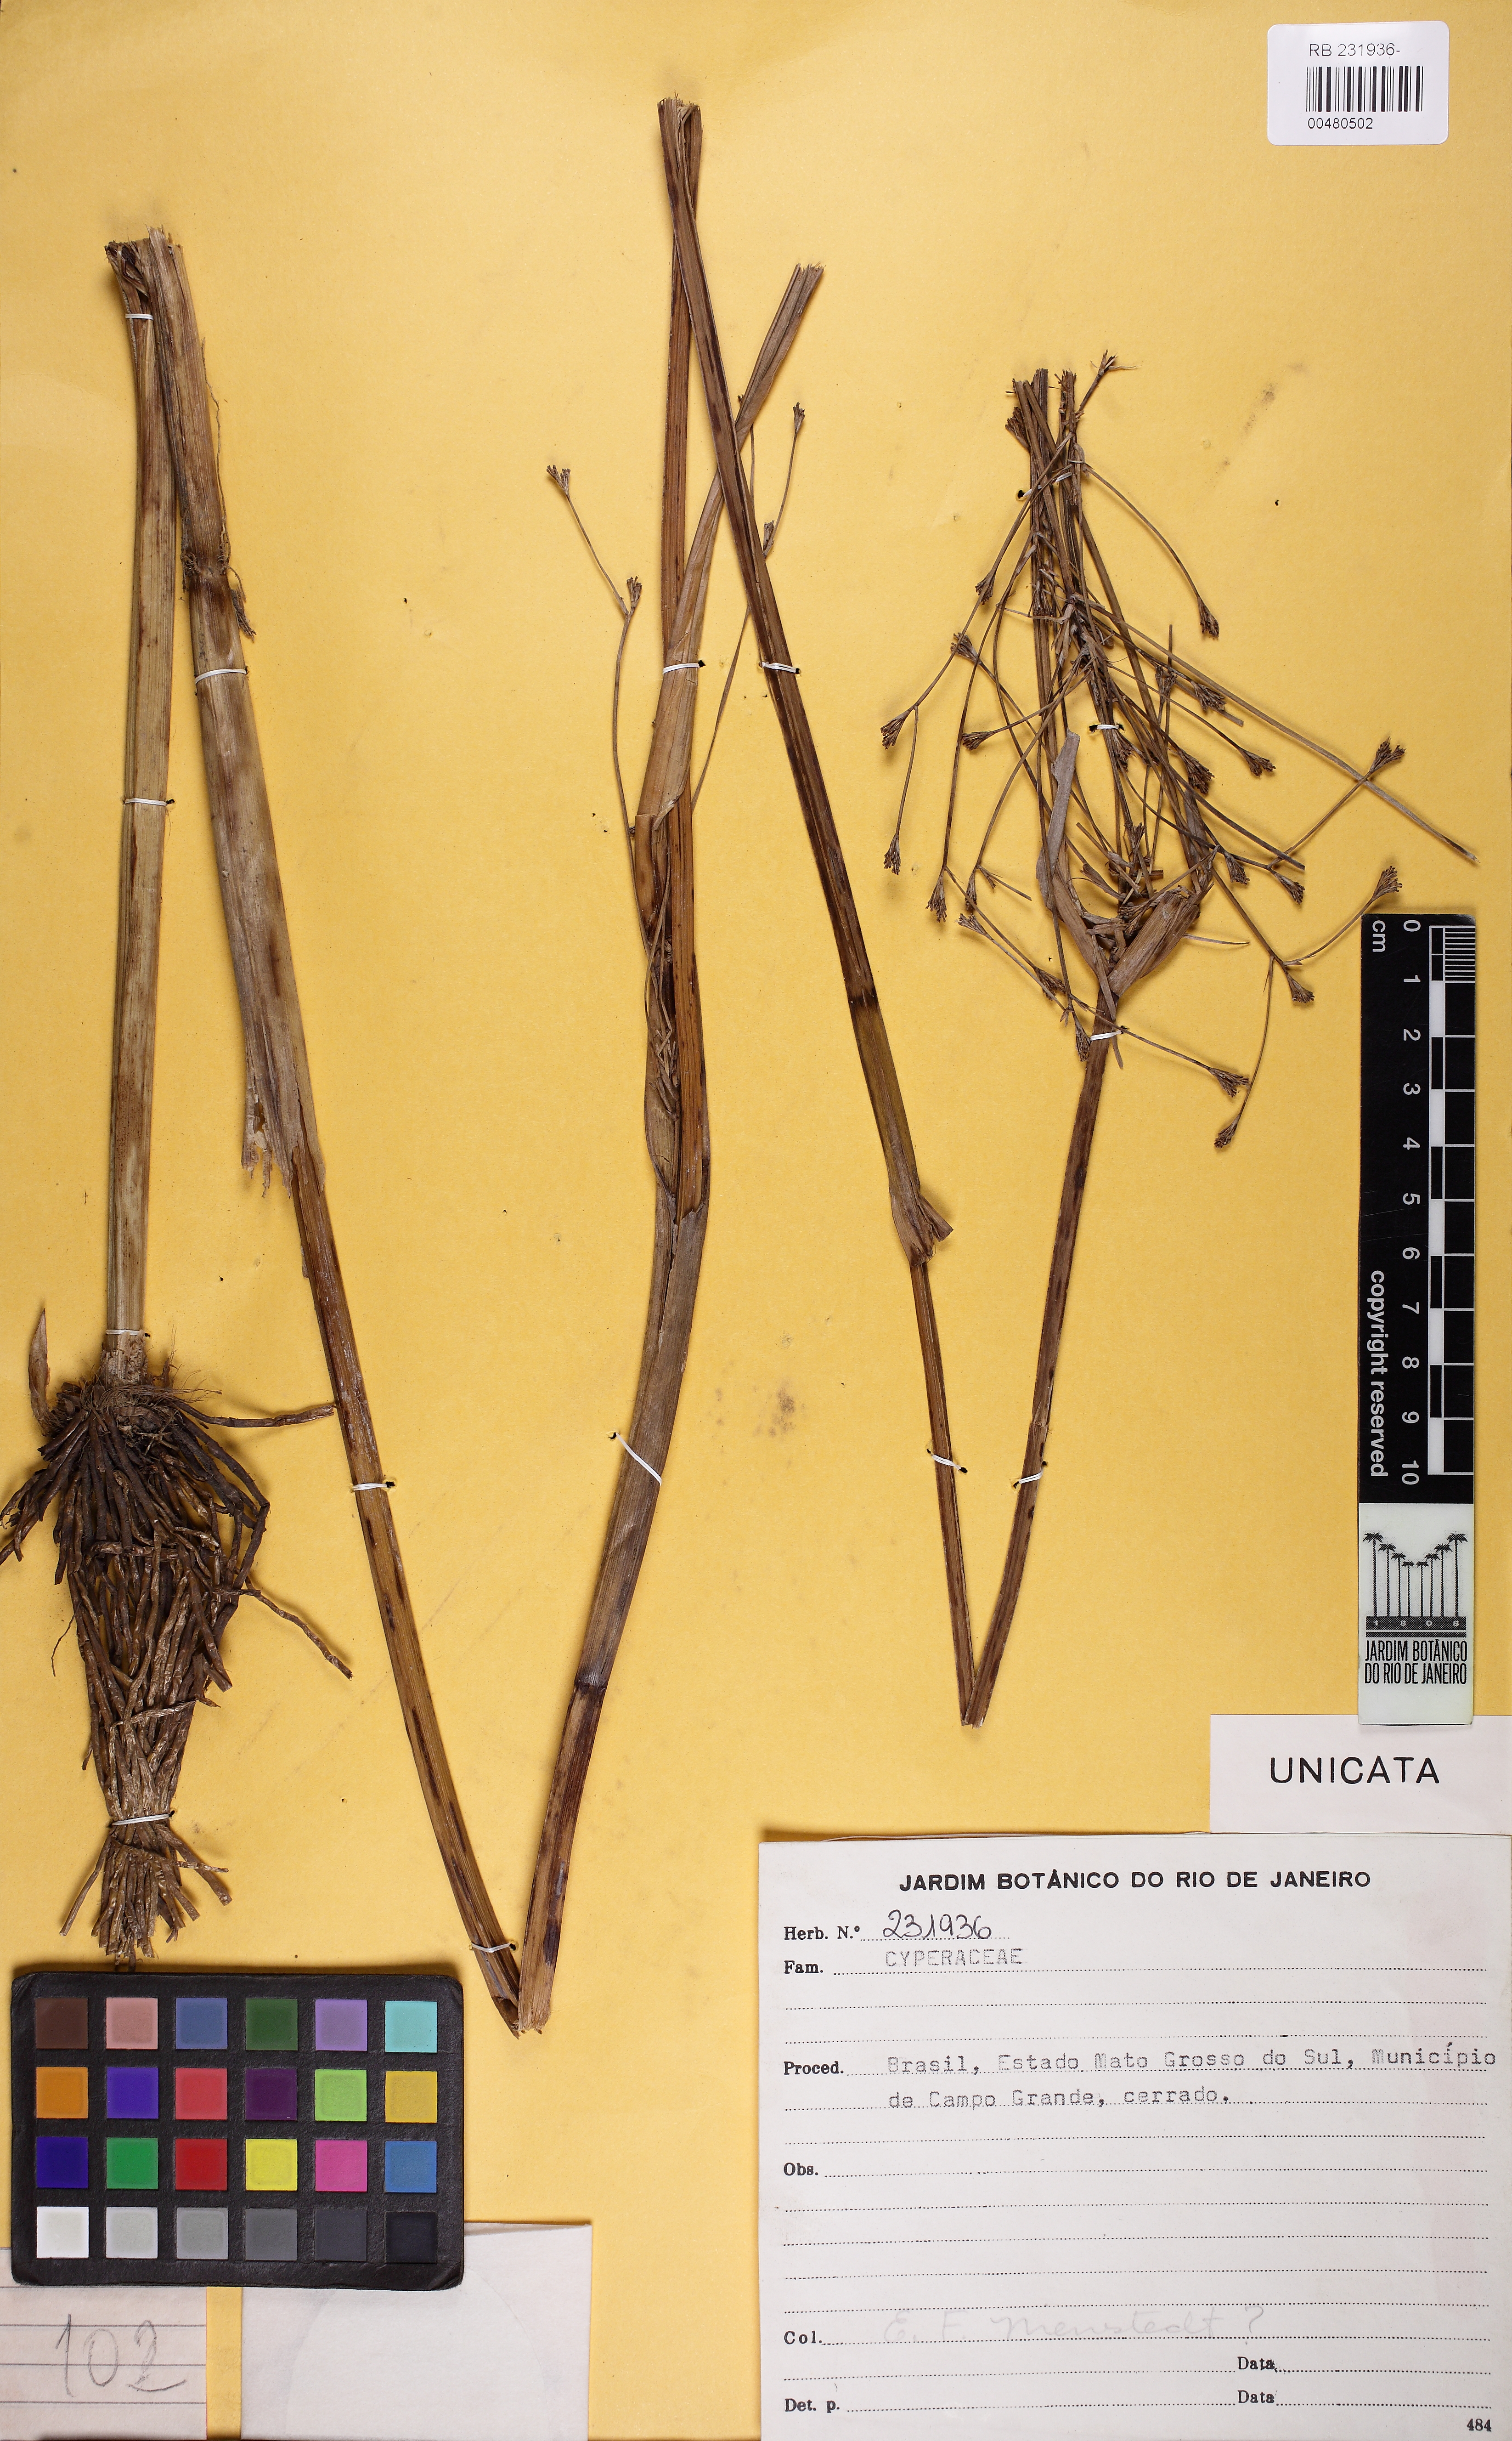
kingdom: Plantae
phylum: Tracheophyta
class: Liliopsida
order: Poales
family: Cyperaceae
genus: Cyperus
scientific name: Cyperus
